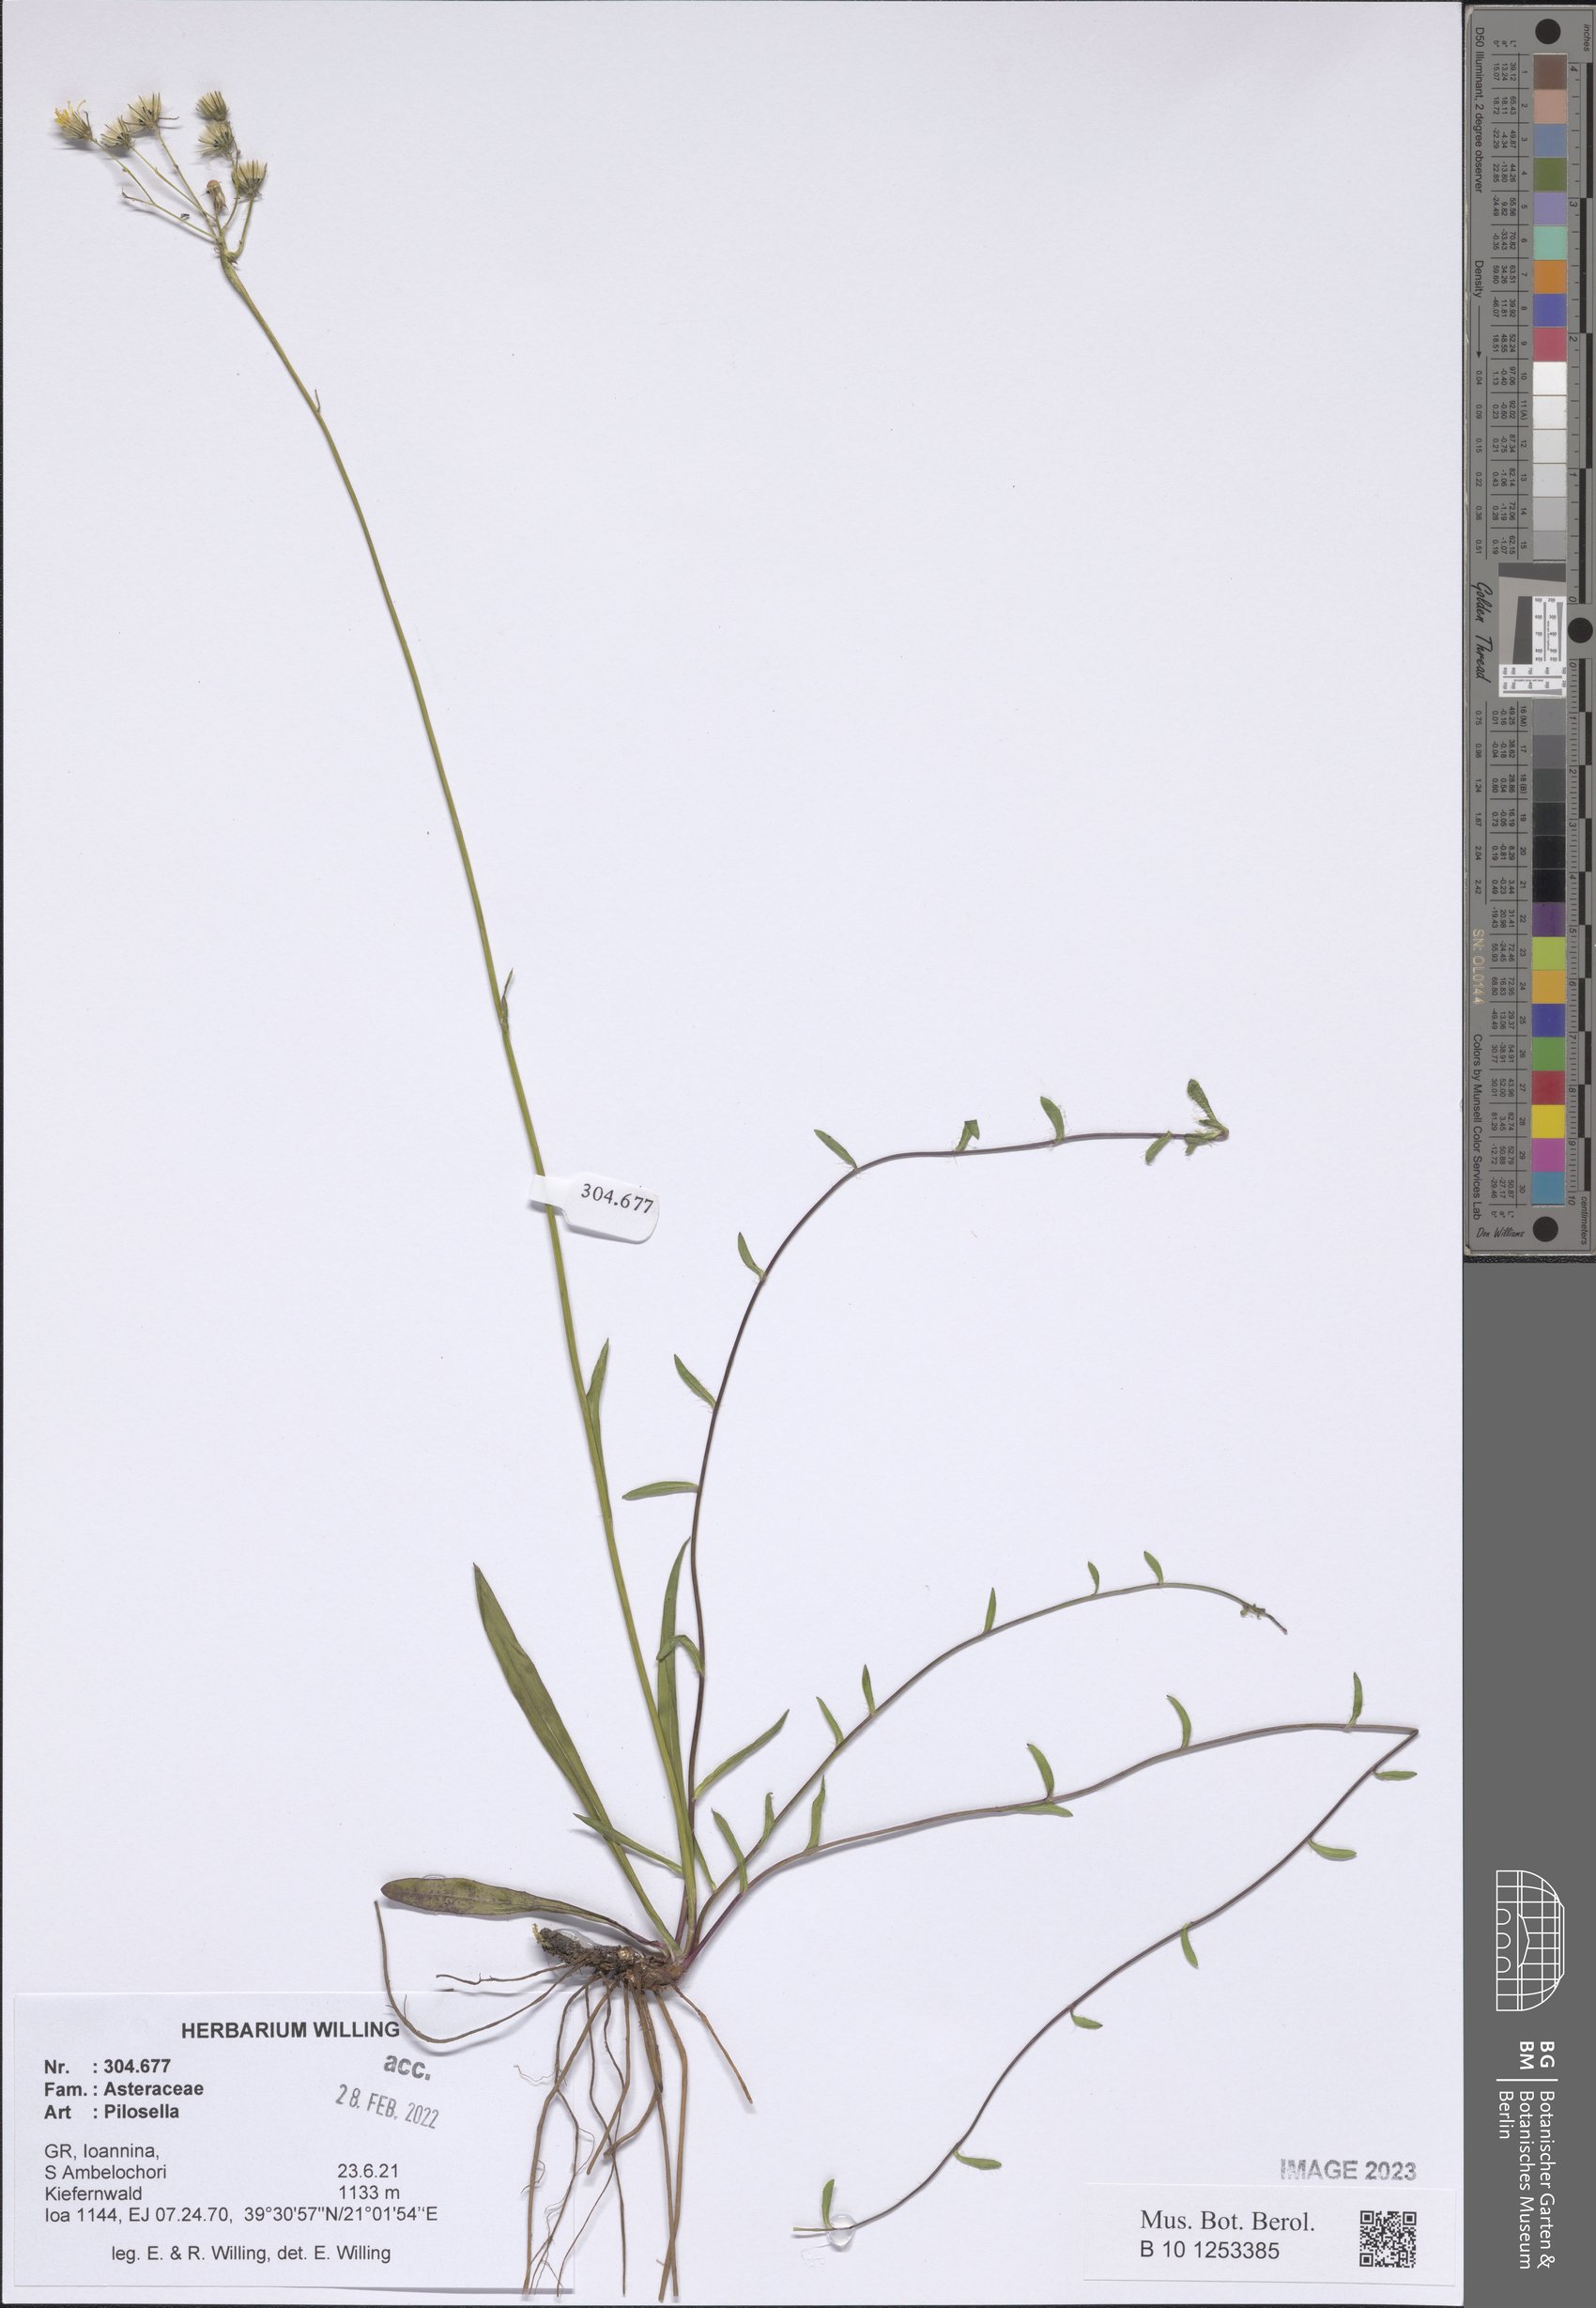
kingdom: Plantae
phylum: Tracheophyta
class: Magnoliopsida
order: Asterales
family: Asteraceae
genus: Pilosella
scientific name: Pilosella
